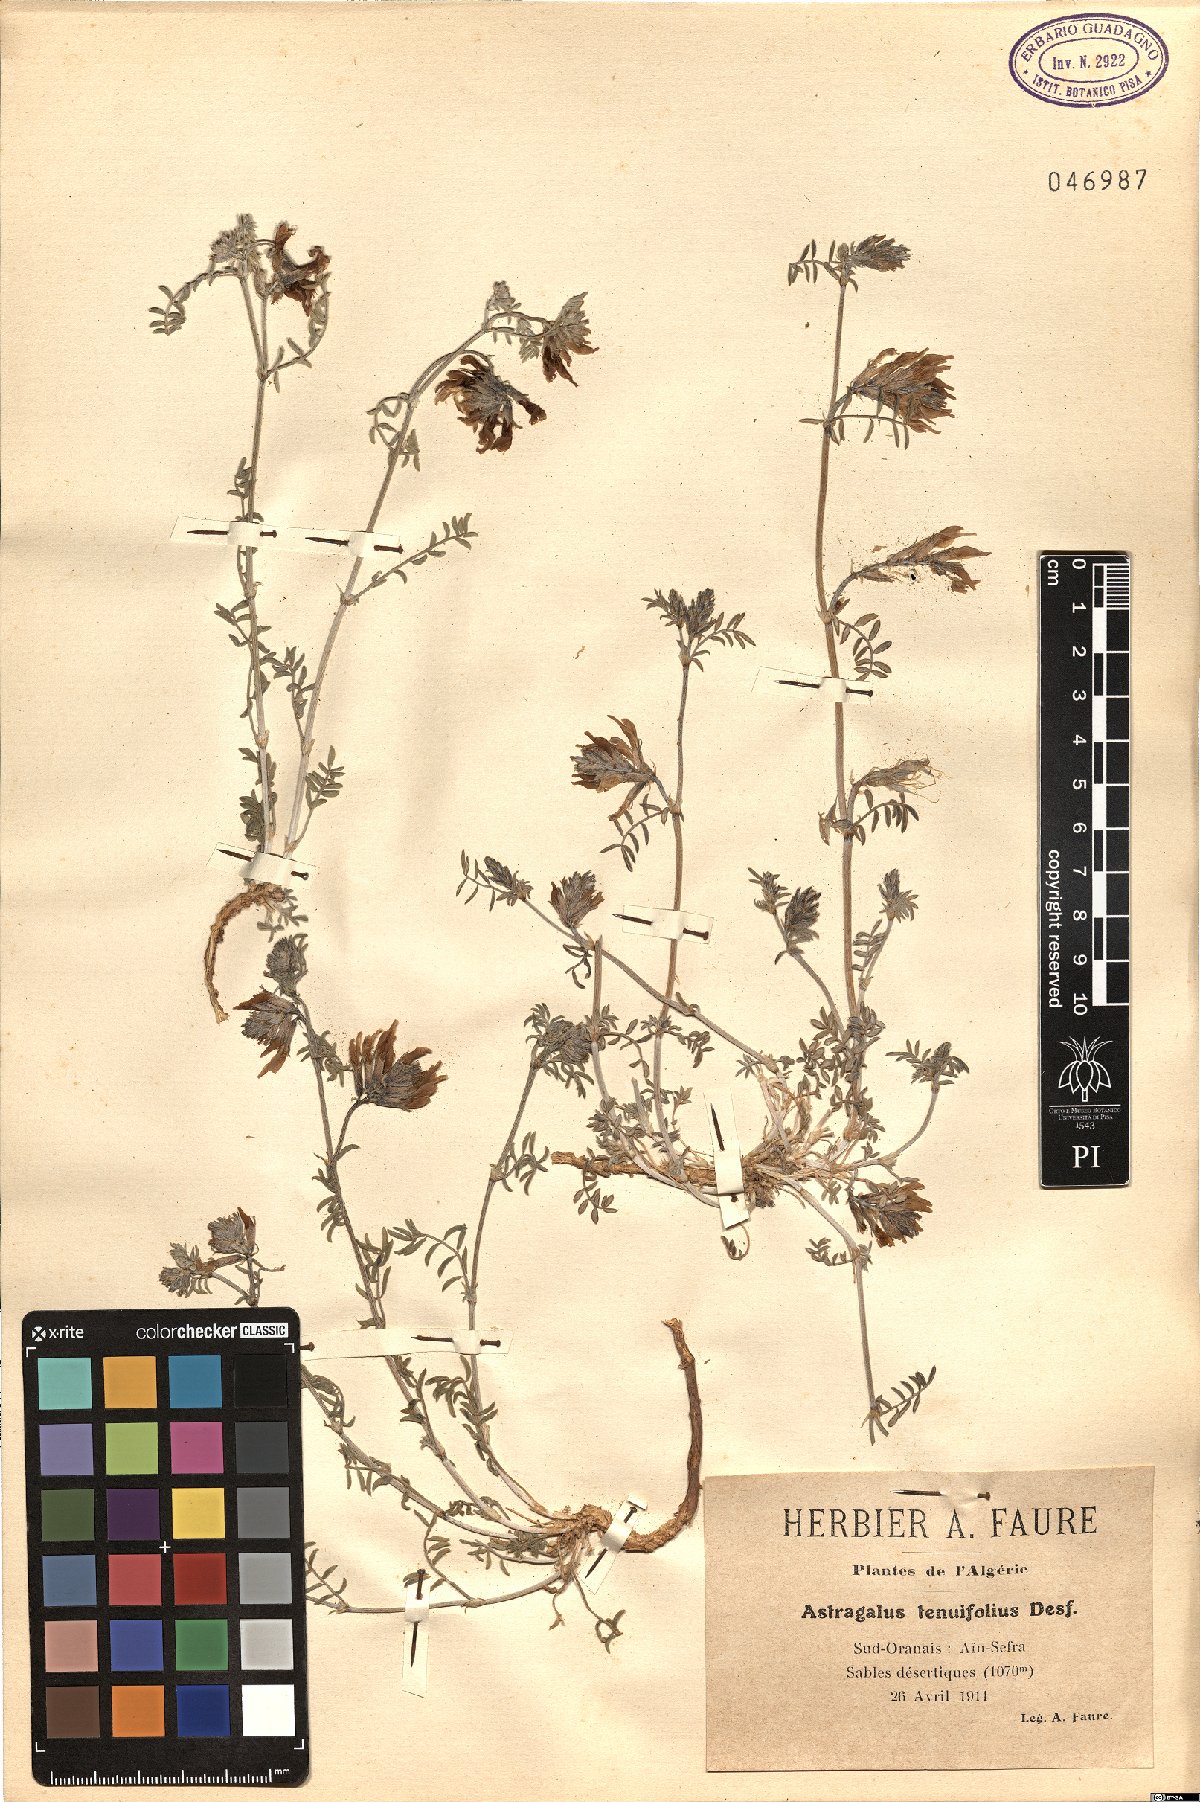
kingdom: Plantae
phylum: Tracheophyta
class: Magnoliopsida
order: Fabales
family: Fabaceae
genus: Astragalus
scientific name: Astragalus algerianus
